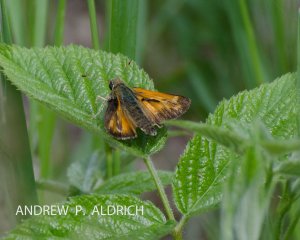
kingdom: Animalia
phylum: Arthropoda
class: Insecta
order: Lepidoptera
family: Hesperiidae
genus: Lon
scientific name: Lon hobomok
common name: Hobomok Skipper
